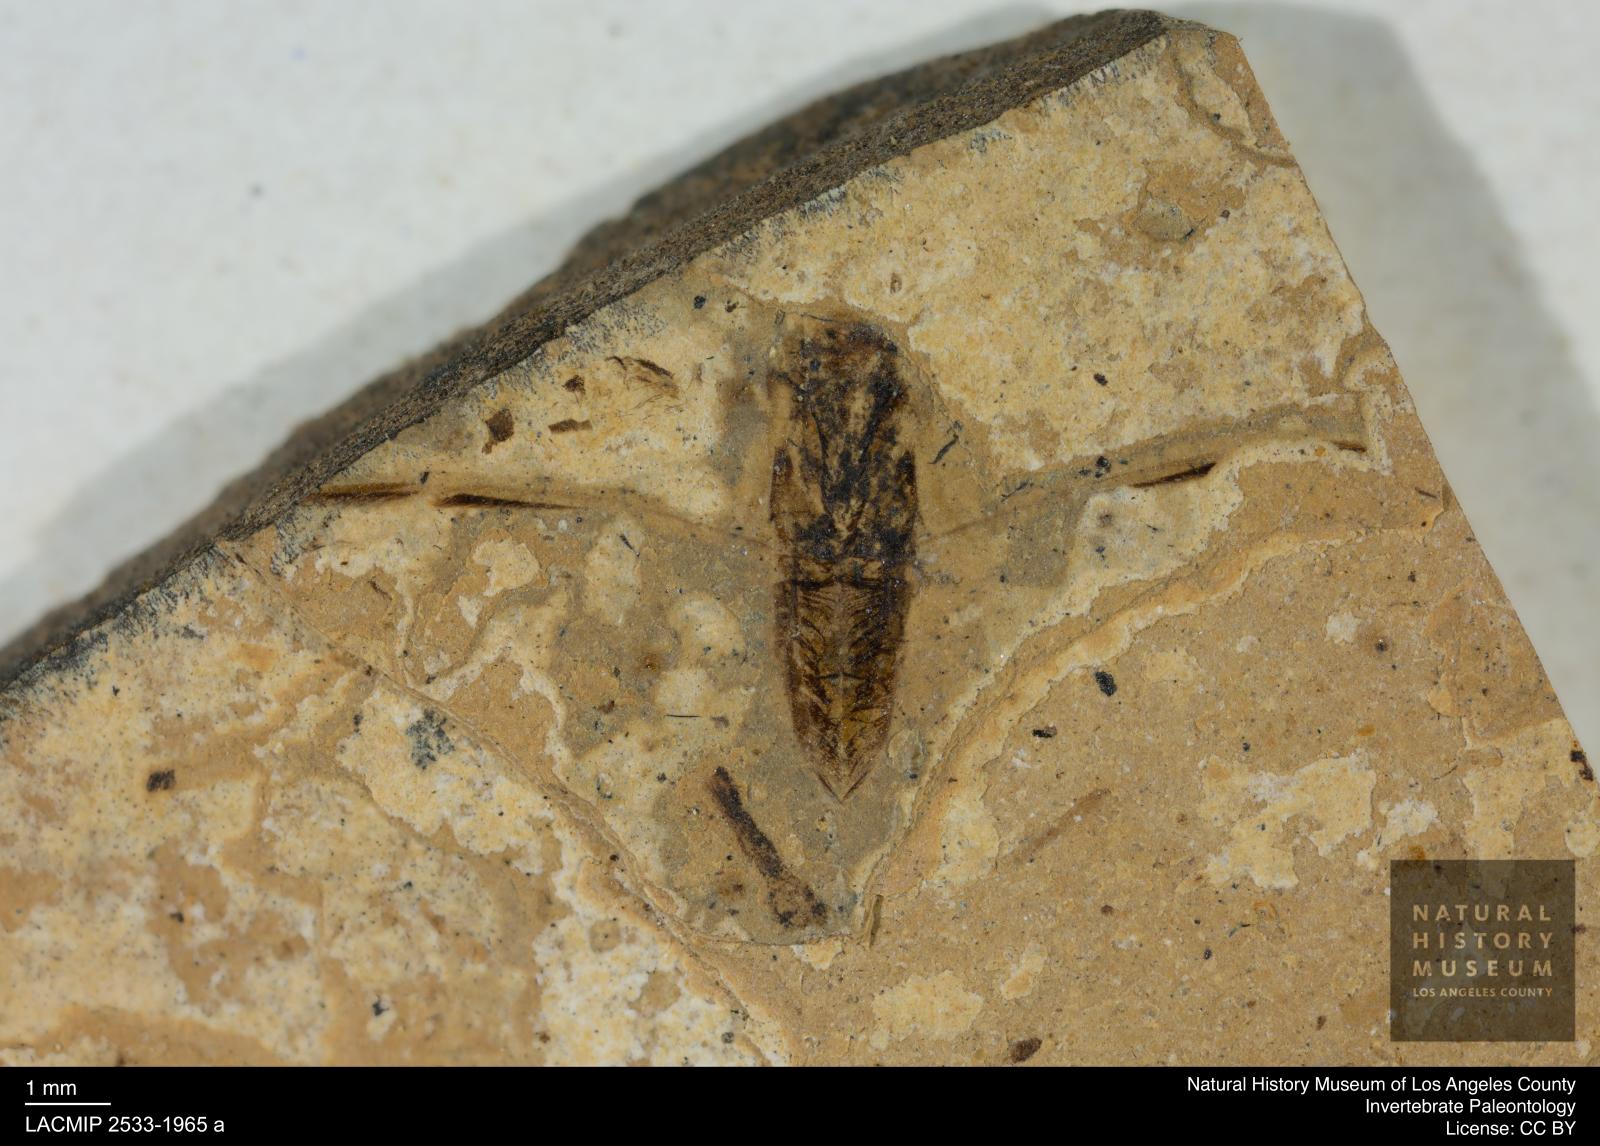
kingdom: Animalia
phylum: Arthropoda
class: Insecta
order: Hemiptera
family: Notonectidae
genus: Anisops
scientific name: Anisops Notonecta deichmuelleri
